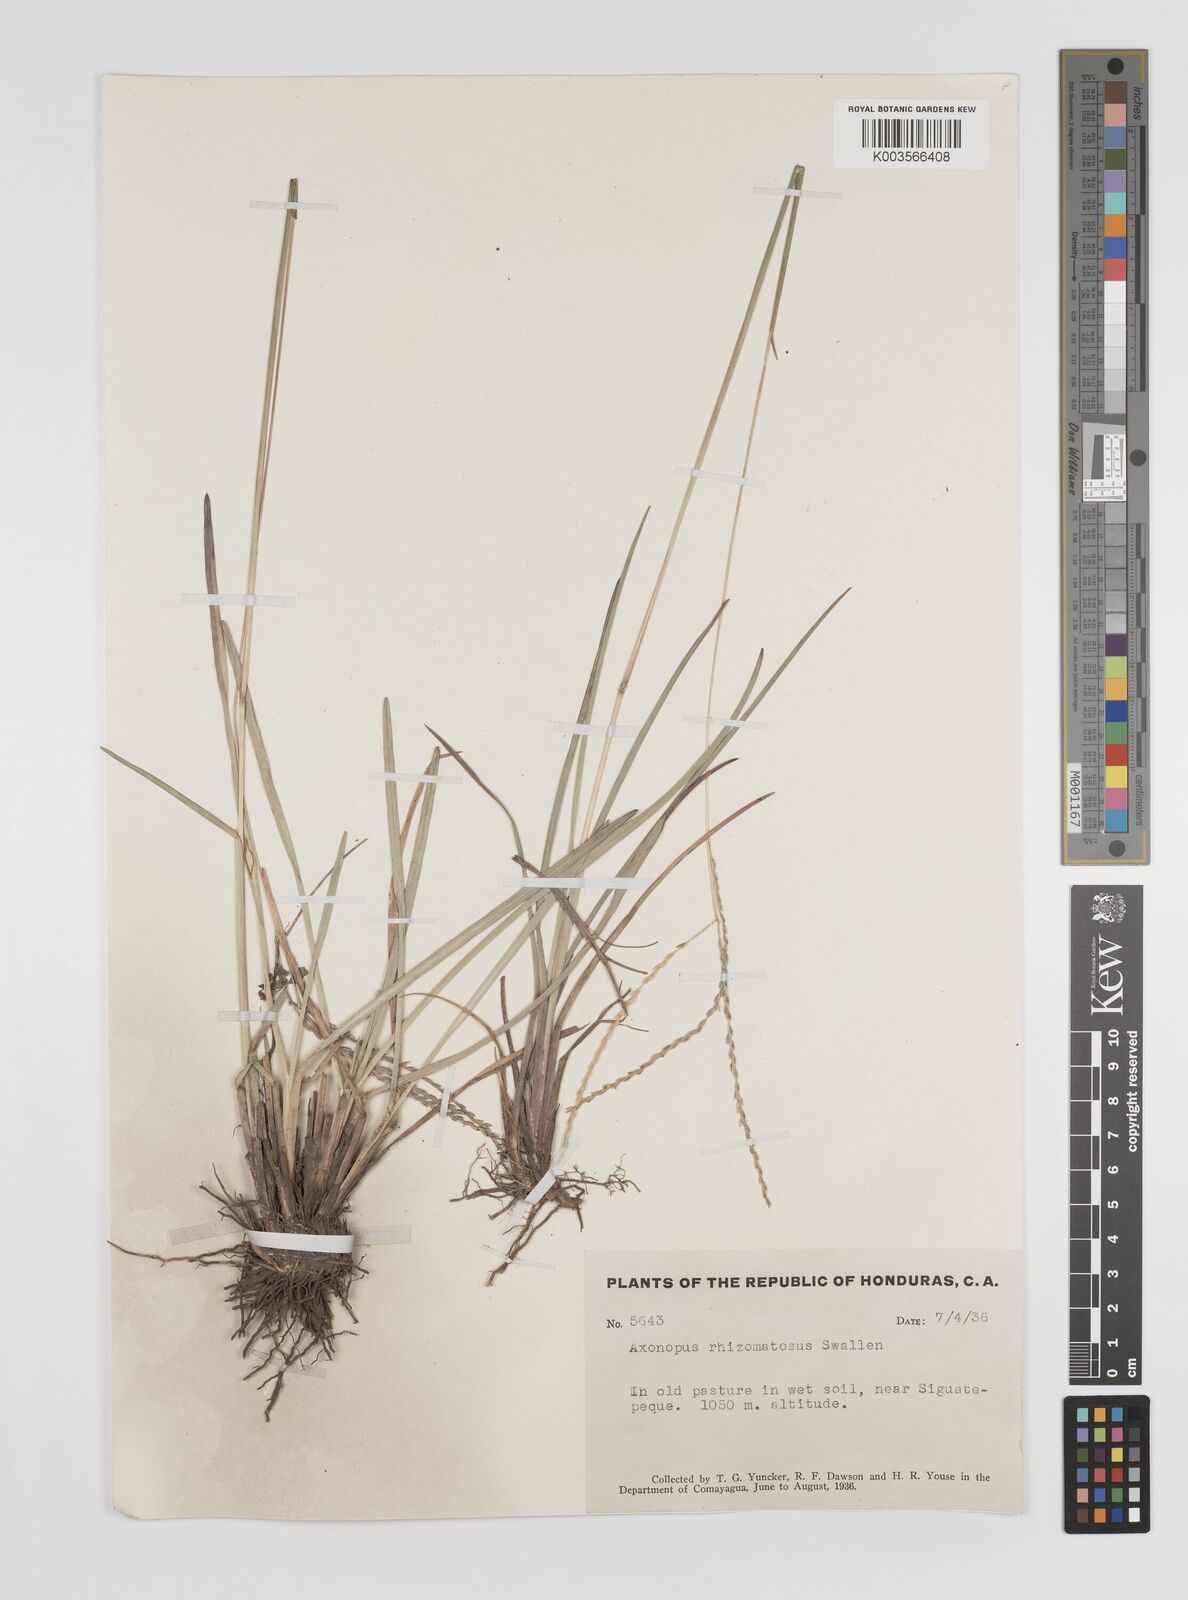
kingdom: Plantae
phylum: Tracheophyta
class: Liliopsida
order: Poales
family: Poaceae
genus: Axonopus
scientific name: Axonopus purpusii
